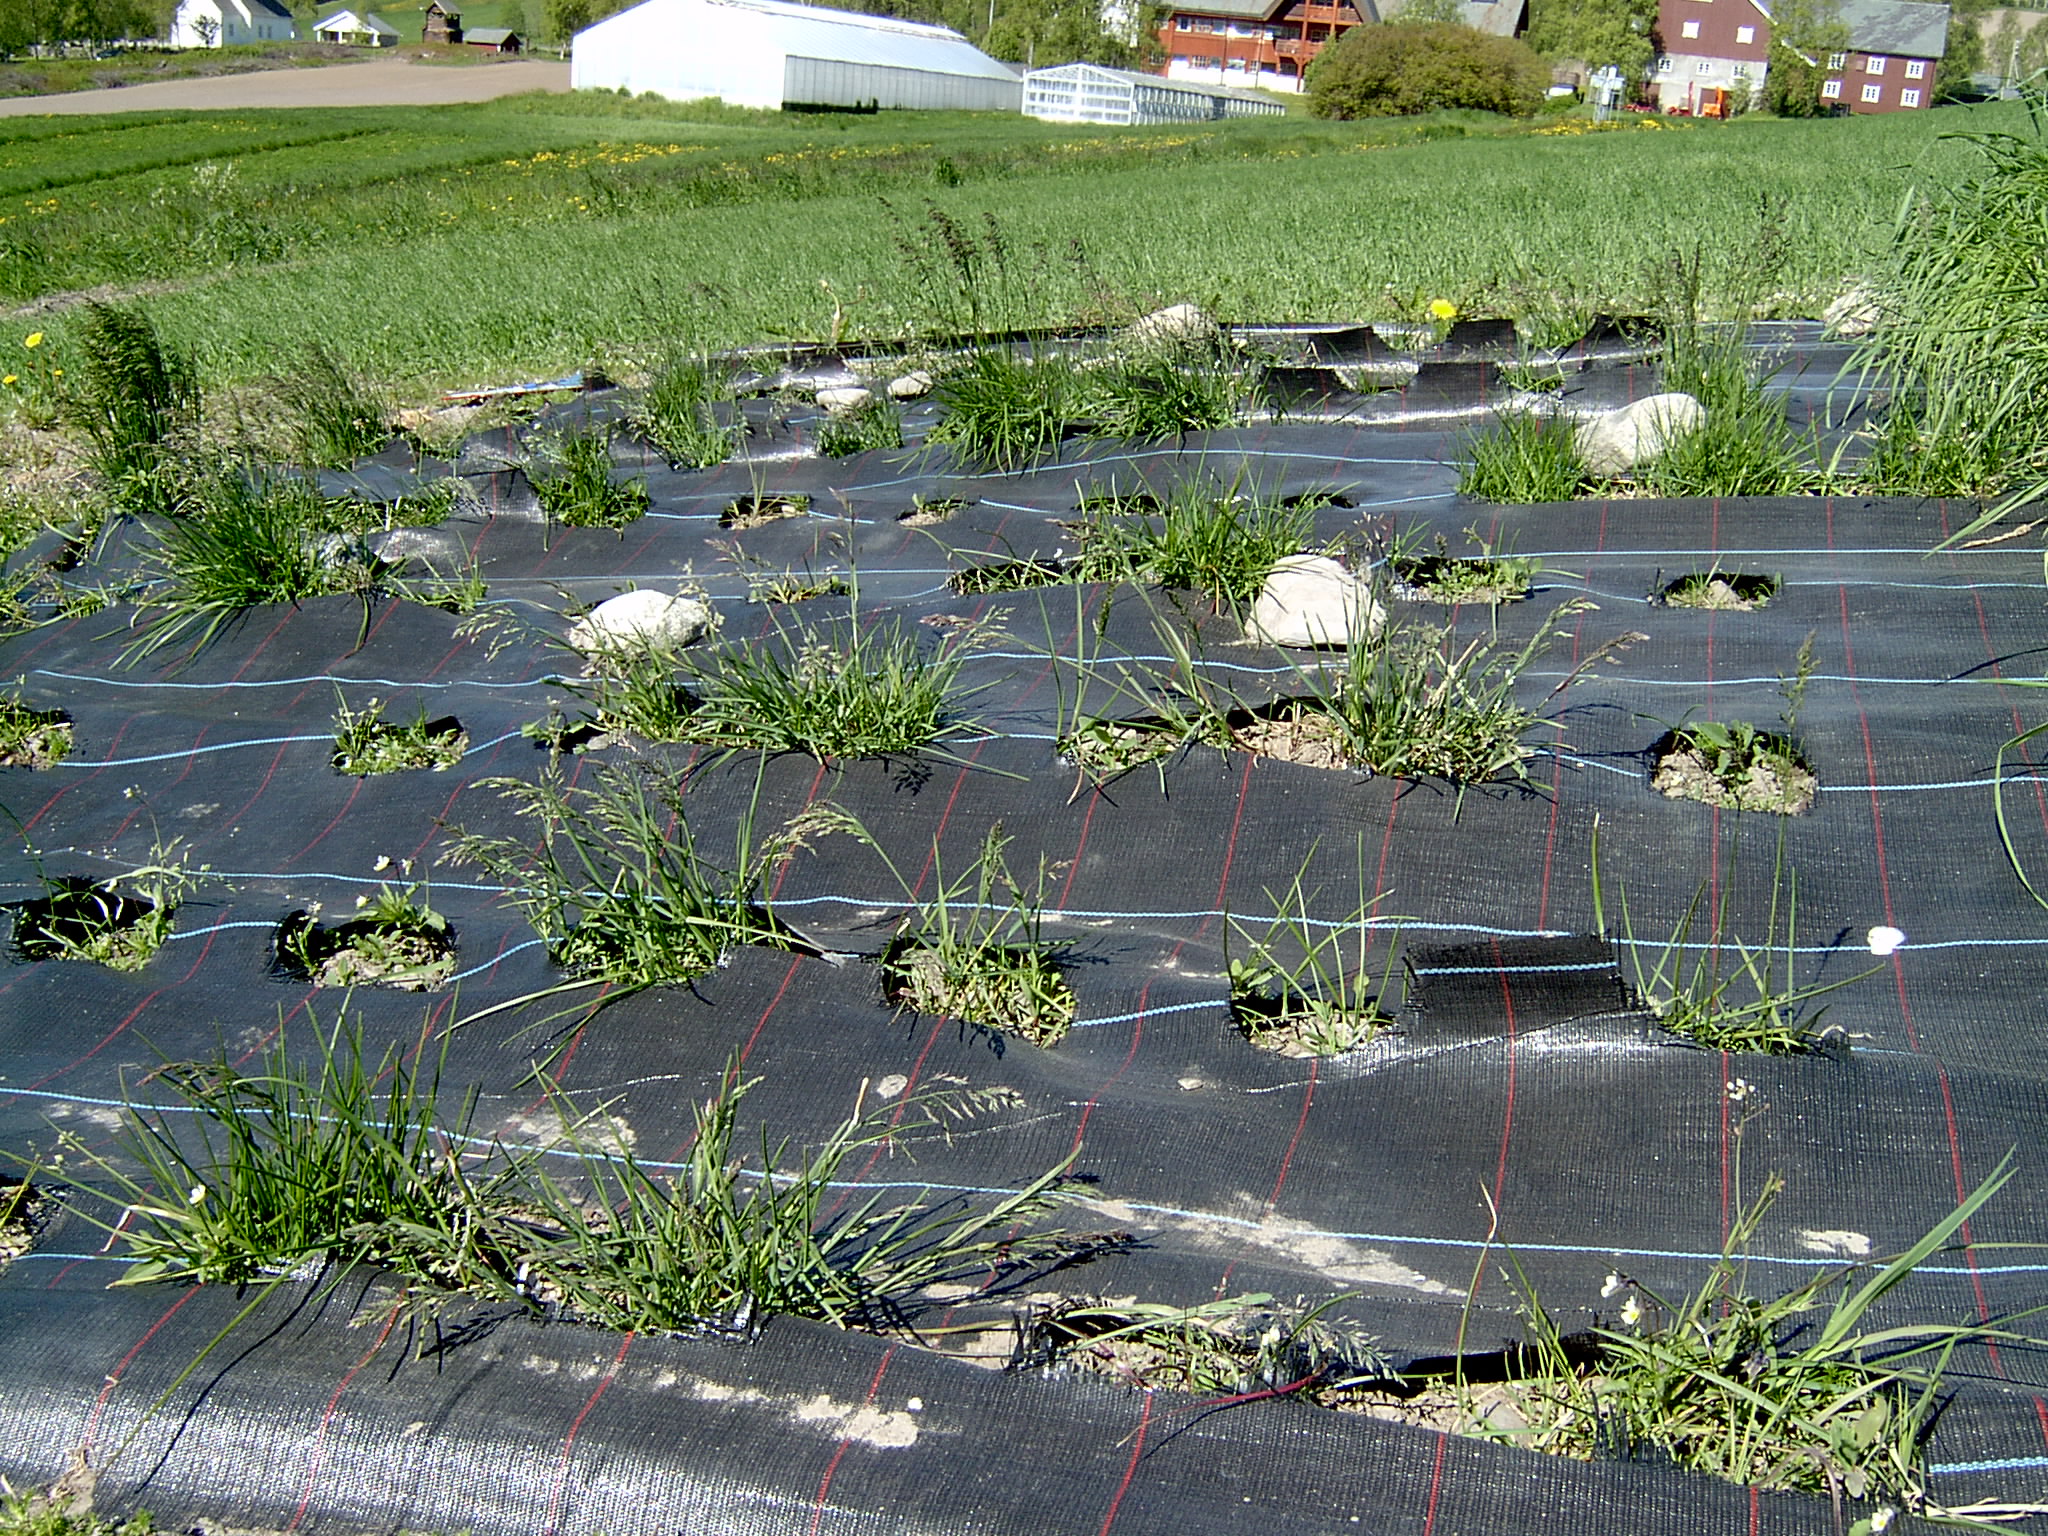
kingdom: Plantae
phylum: Tracheophyta
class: Liliopsida
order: Poales
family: Poaceae
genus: Poa
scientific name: Poa pratensis
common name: Kentucky bluegrass
